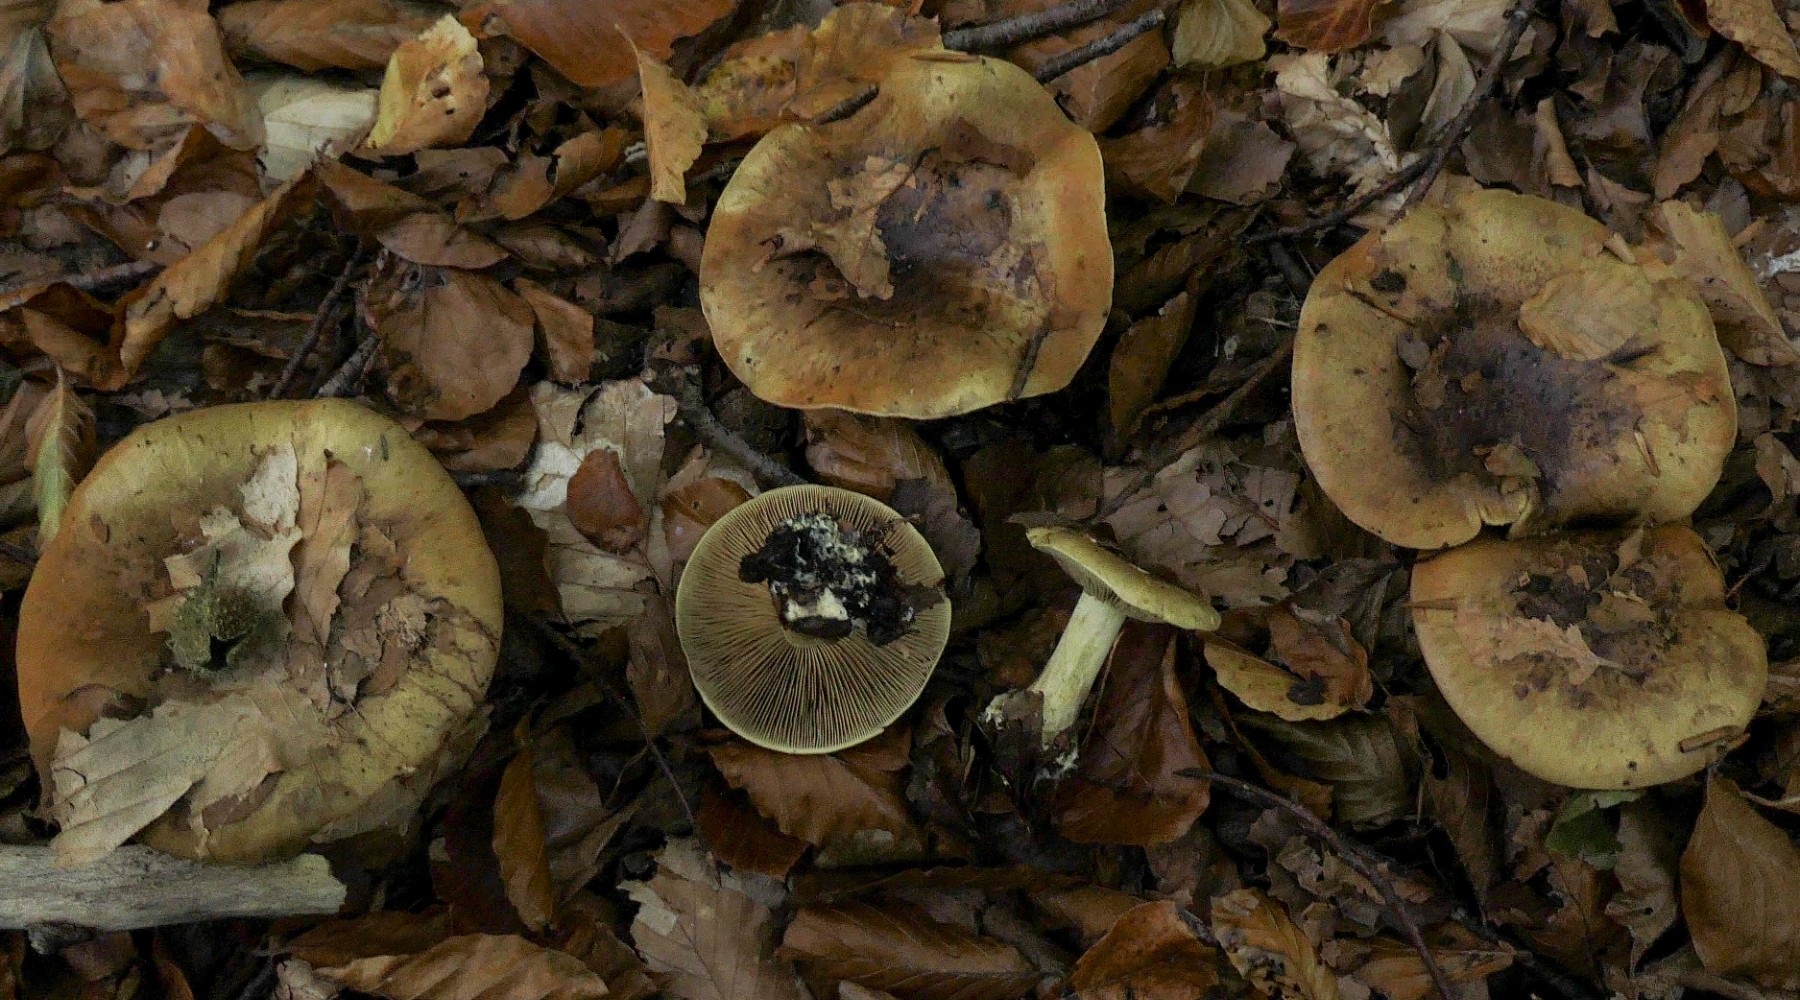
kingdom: Fungi
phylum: Basidiomycota
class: Agaricomycetes
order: Agaricales
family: Cortinariaceae
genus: Calonarius
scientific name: Calonarius citrinus
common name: citrongul slørhat
